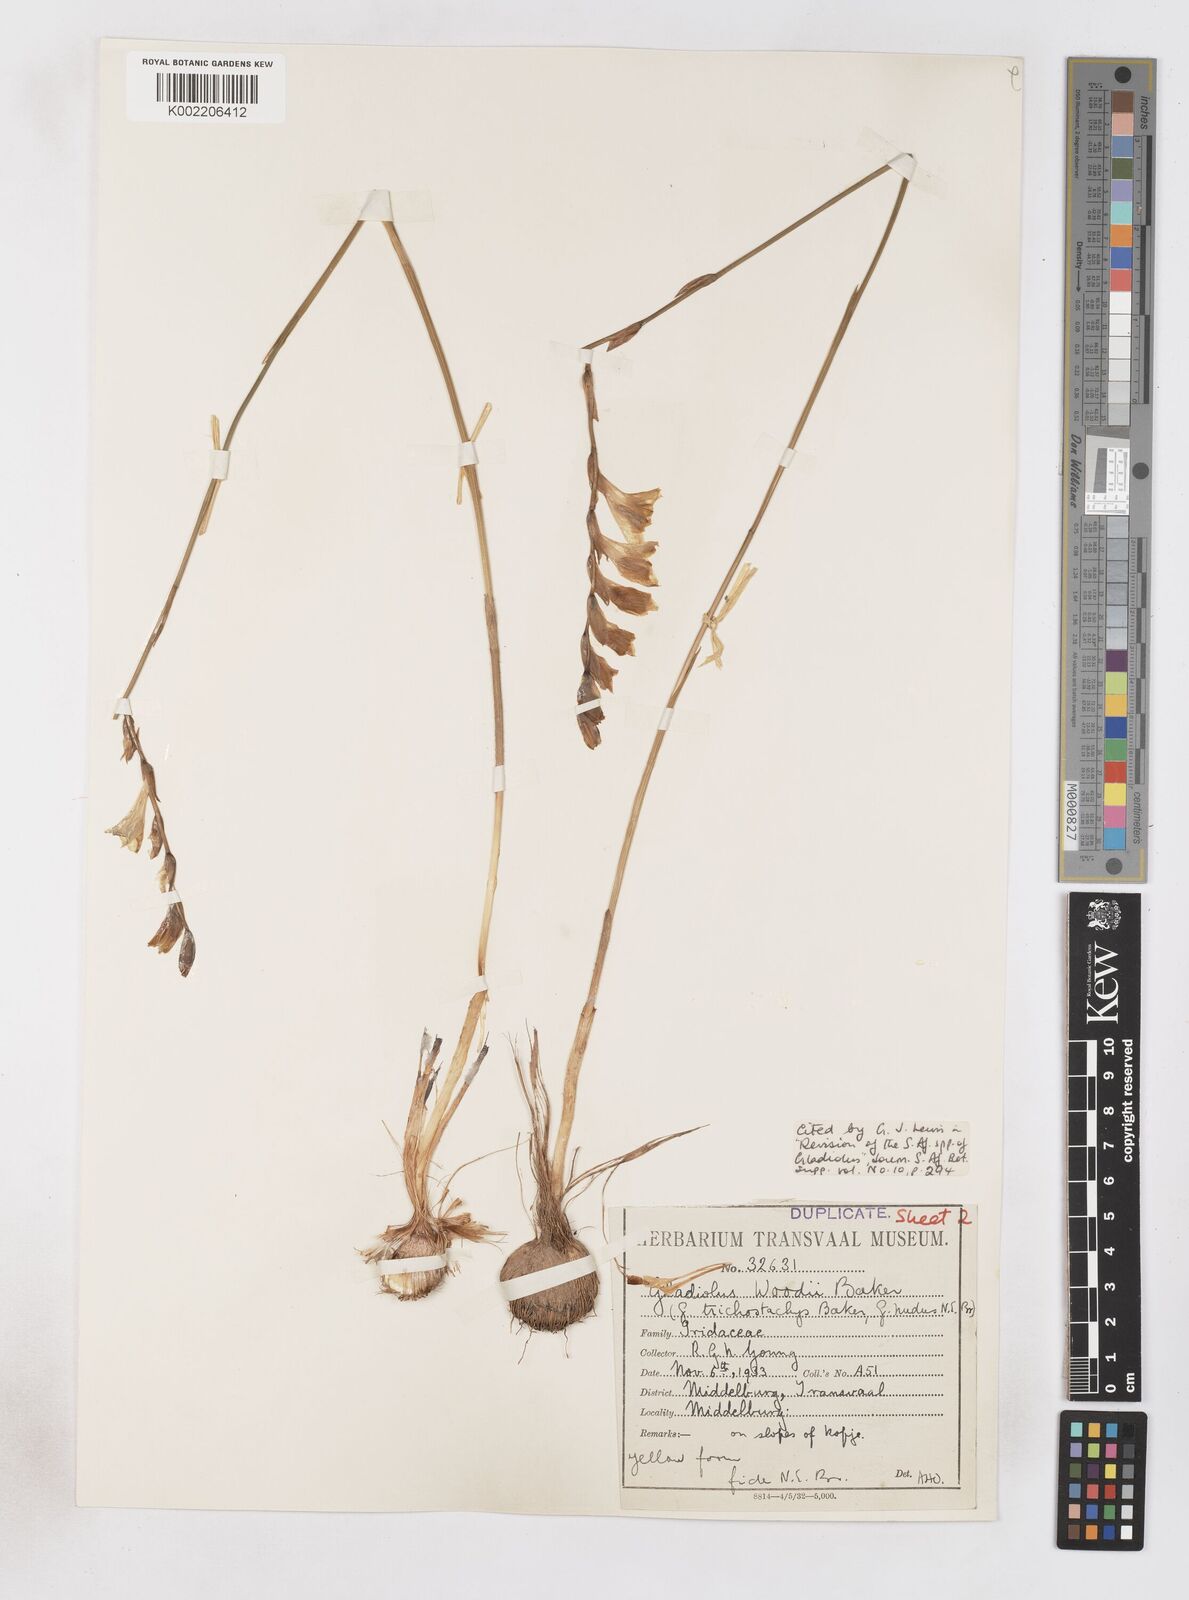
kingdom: Plantae
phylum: Tracheophyta
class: Liliopsida
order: Asparagales
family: Iridaceae
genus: Gladiolus
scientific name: Gladiolus woodii
